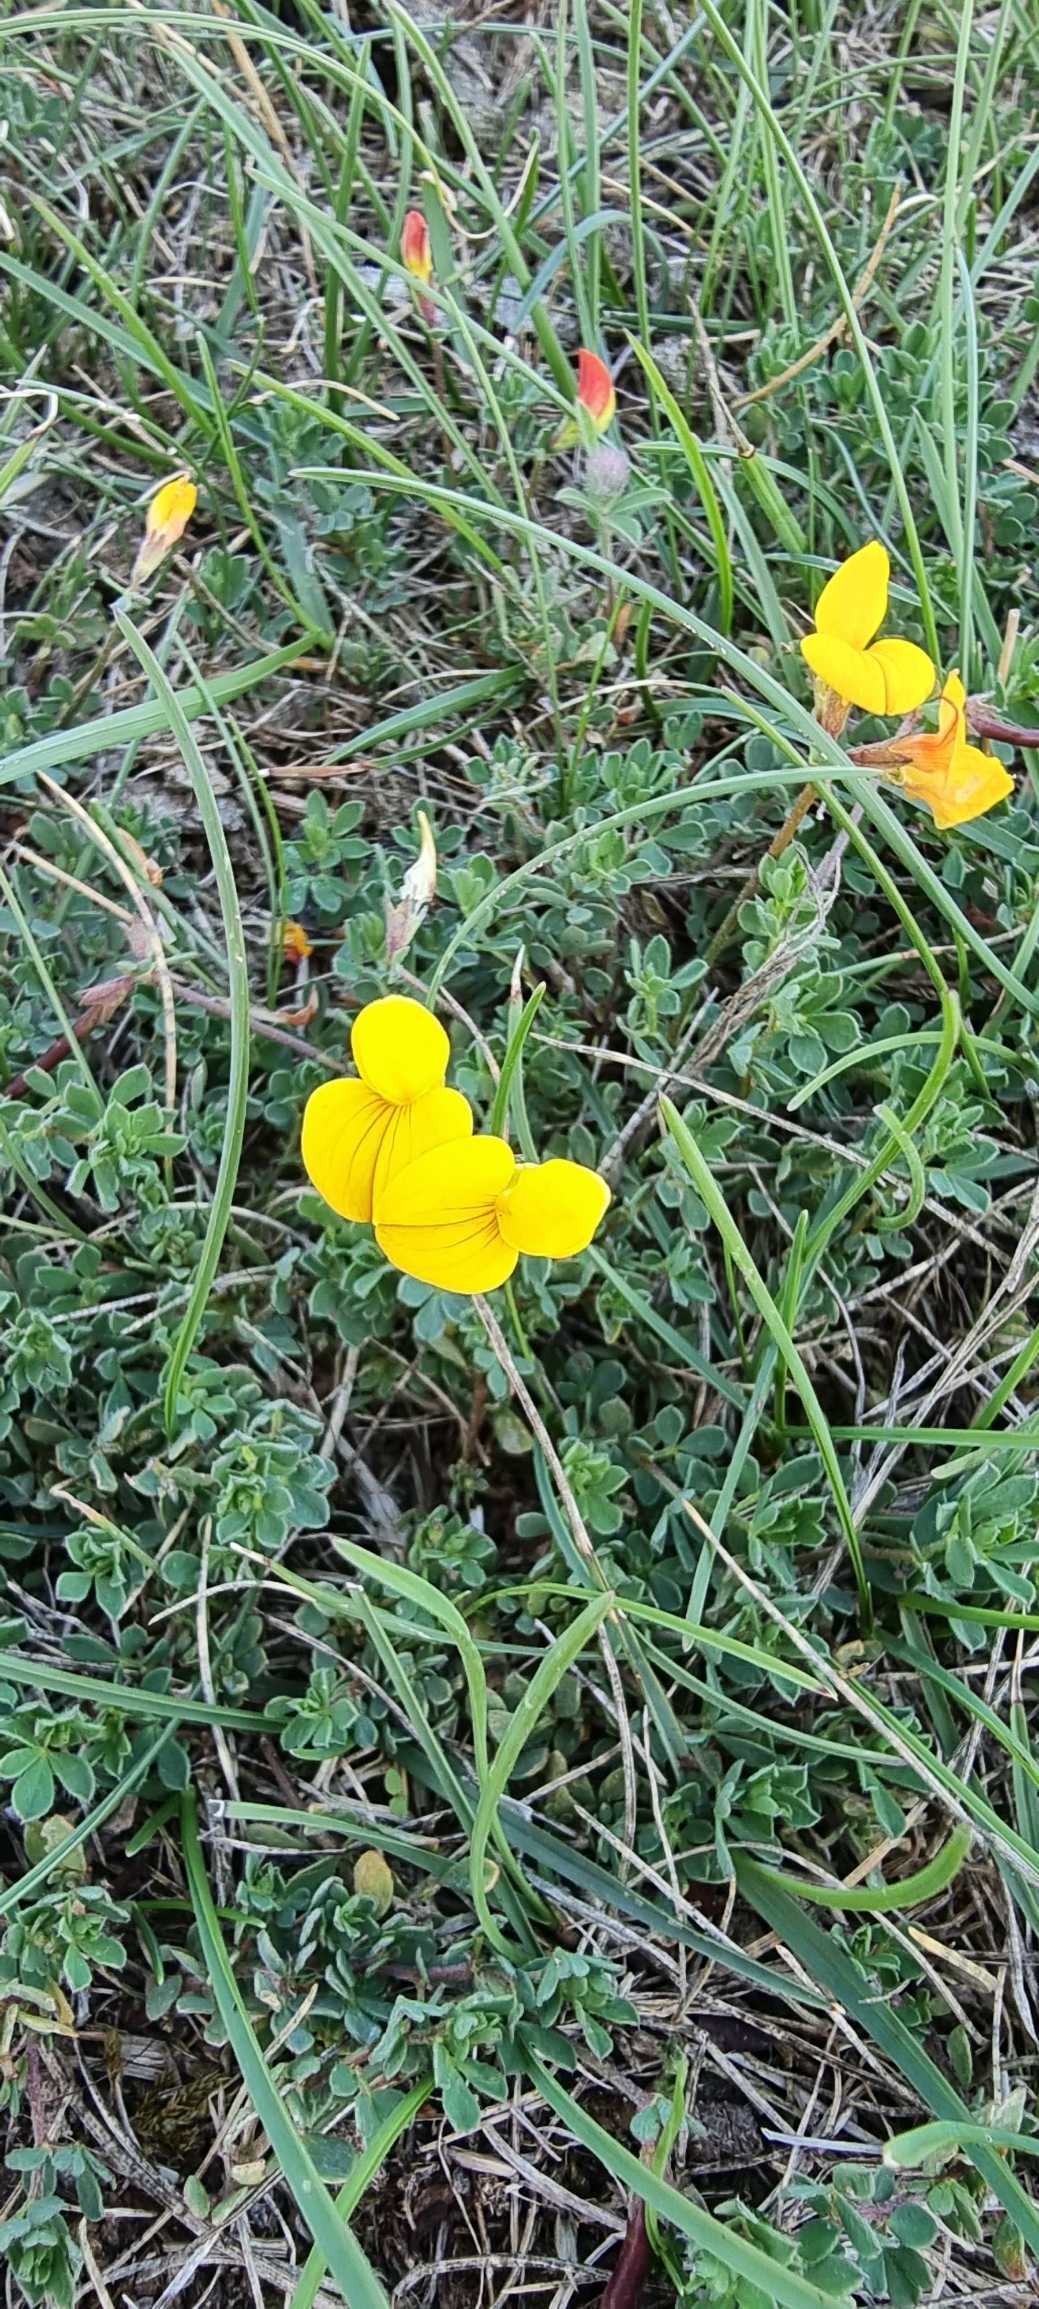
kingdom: Plantae
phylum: Tracheophyta
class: Magnoliopsida
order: Fabales
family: Fabaceae
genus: Lotus
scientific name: Lotus corniculatus
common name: Almindelig kællingetand
